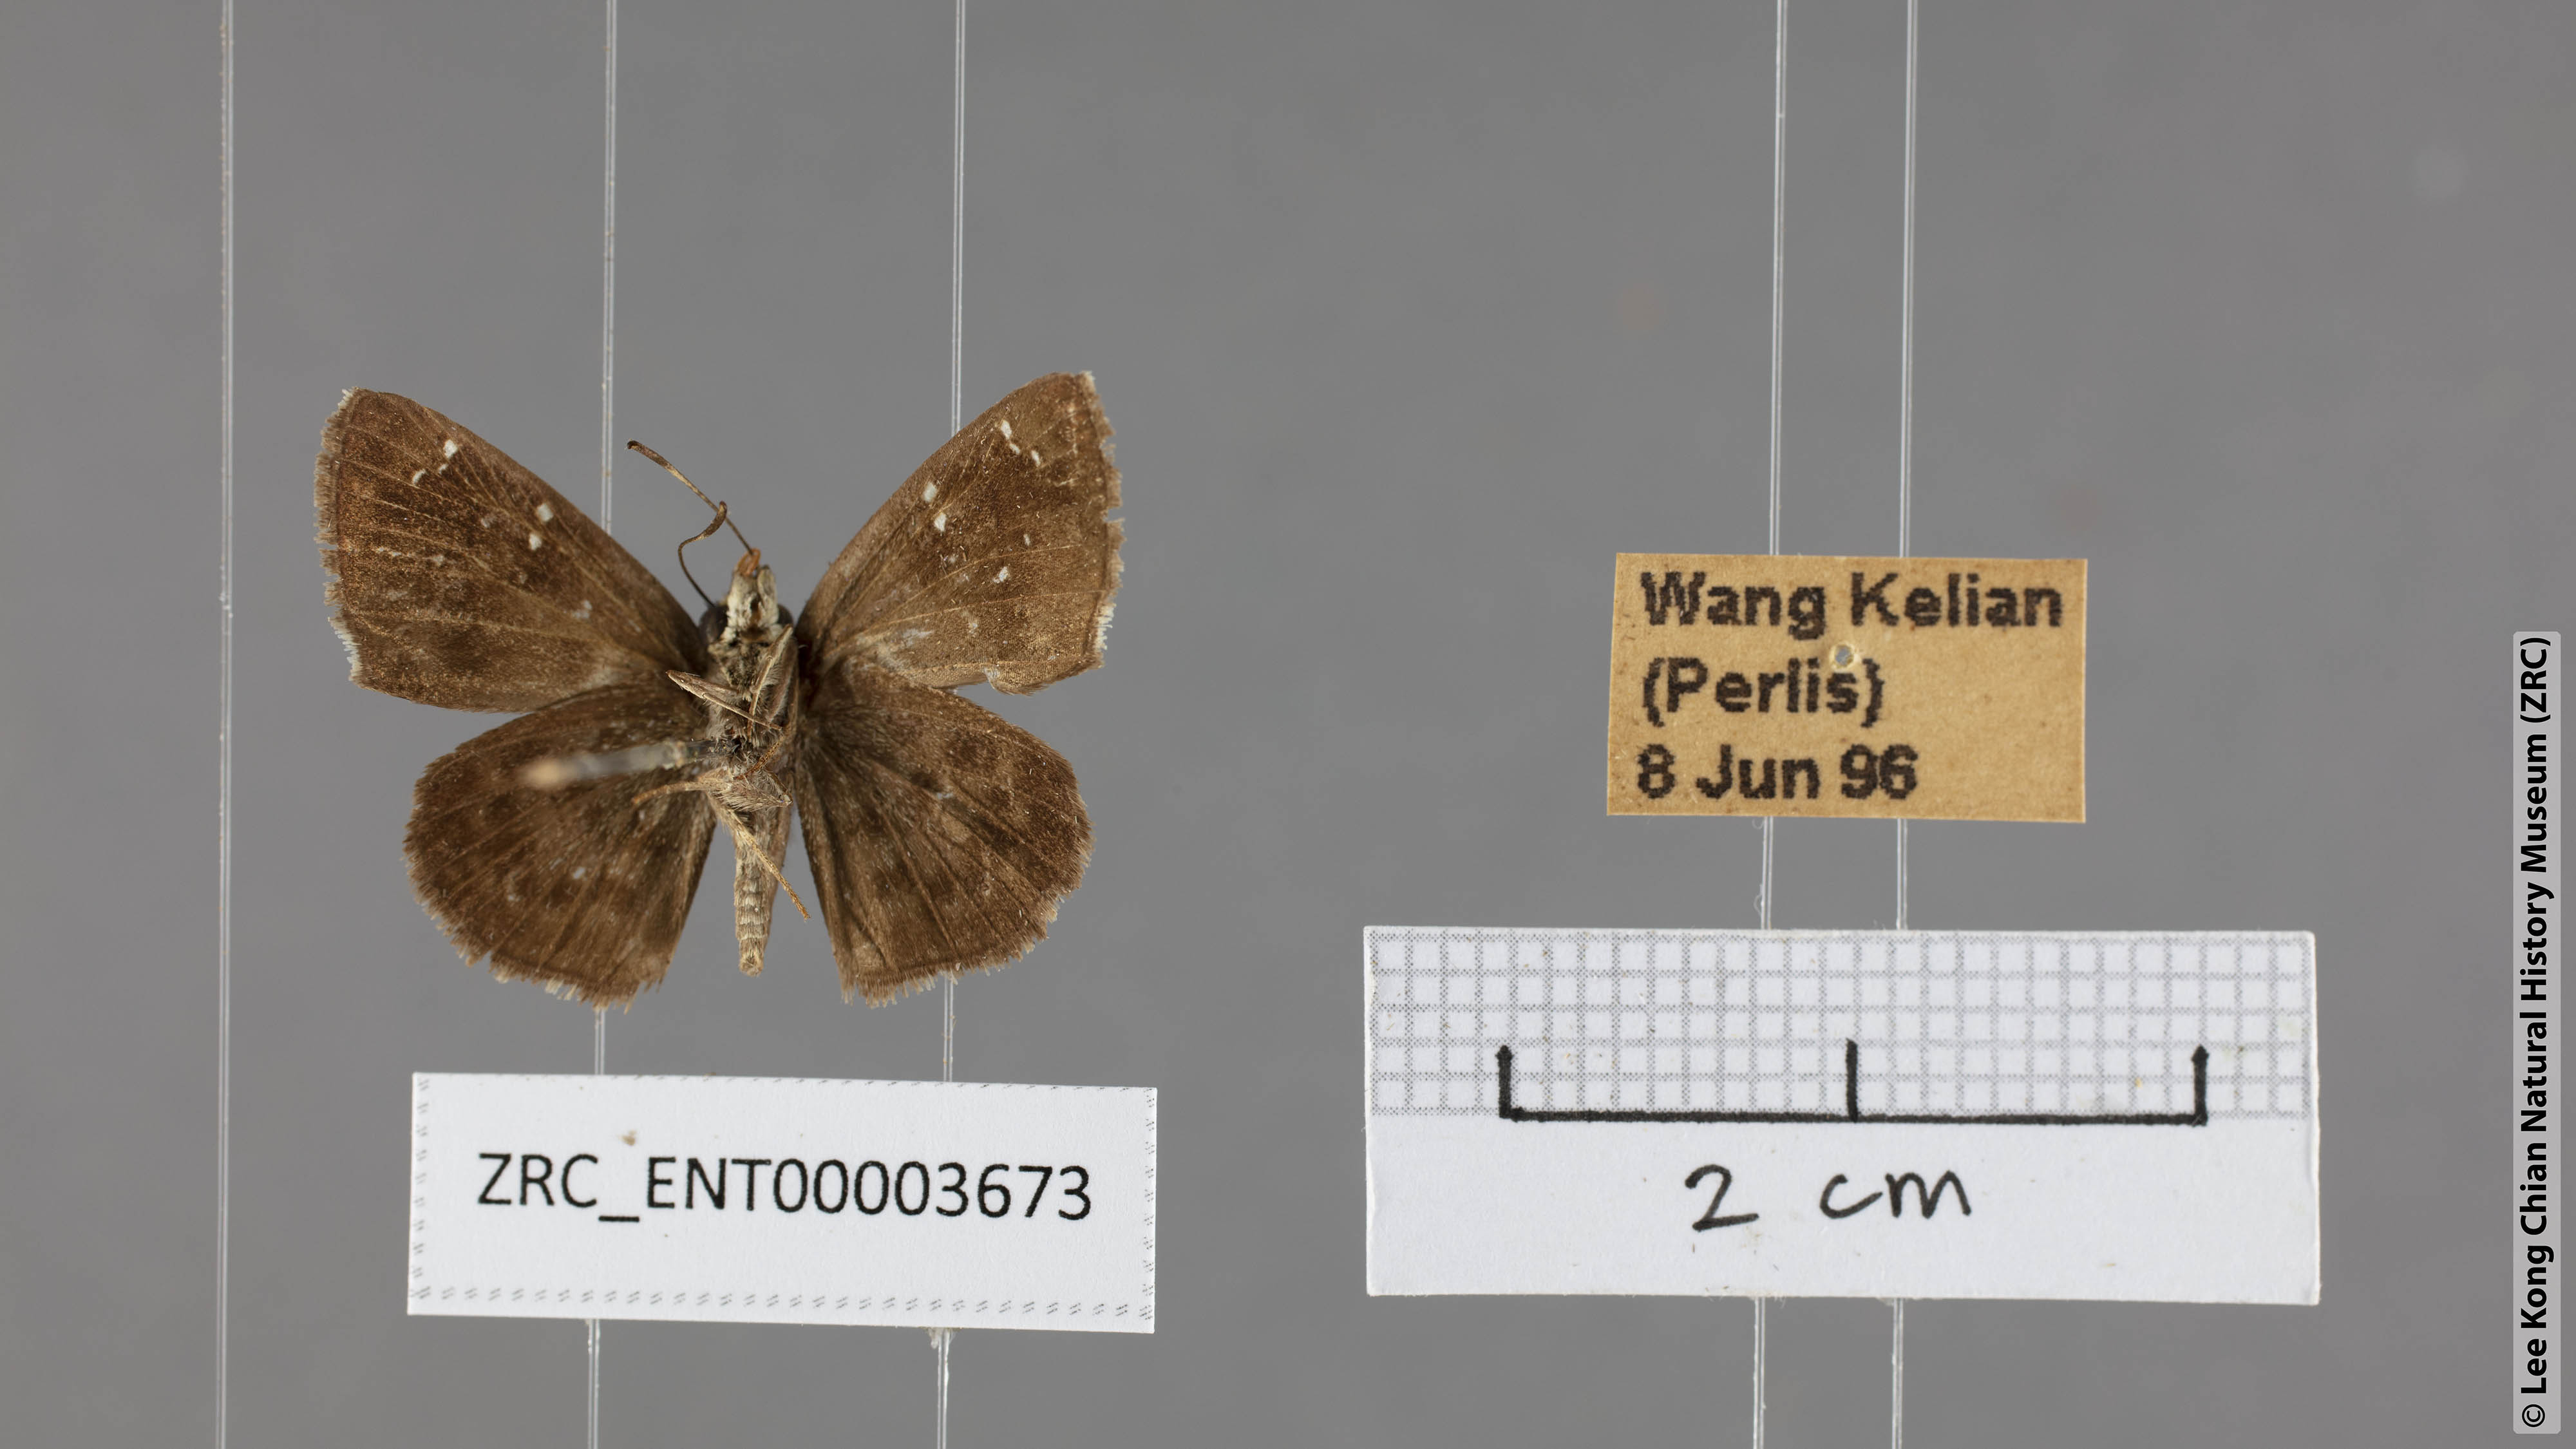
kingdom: Animalia
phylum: Arthropoda
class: Insecta
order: Lepidoptera
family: Hesperiidae
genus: Sarangesa
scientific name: Sarangesa dasahara
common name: Common small flat
